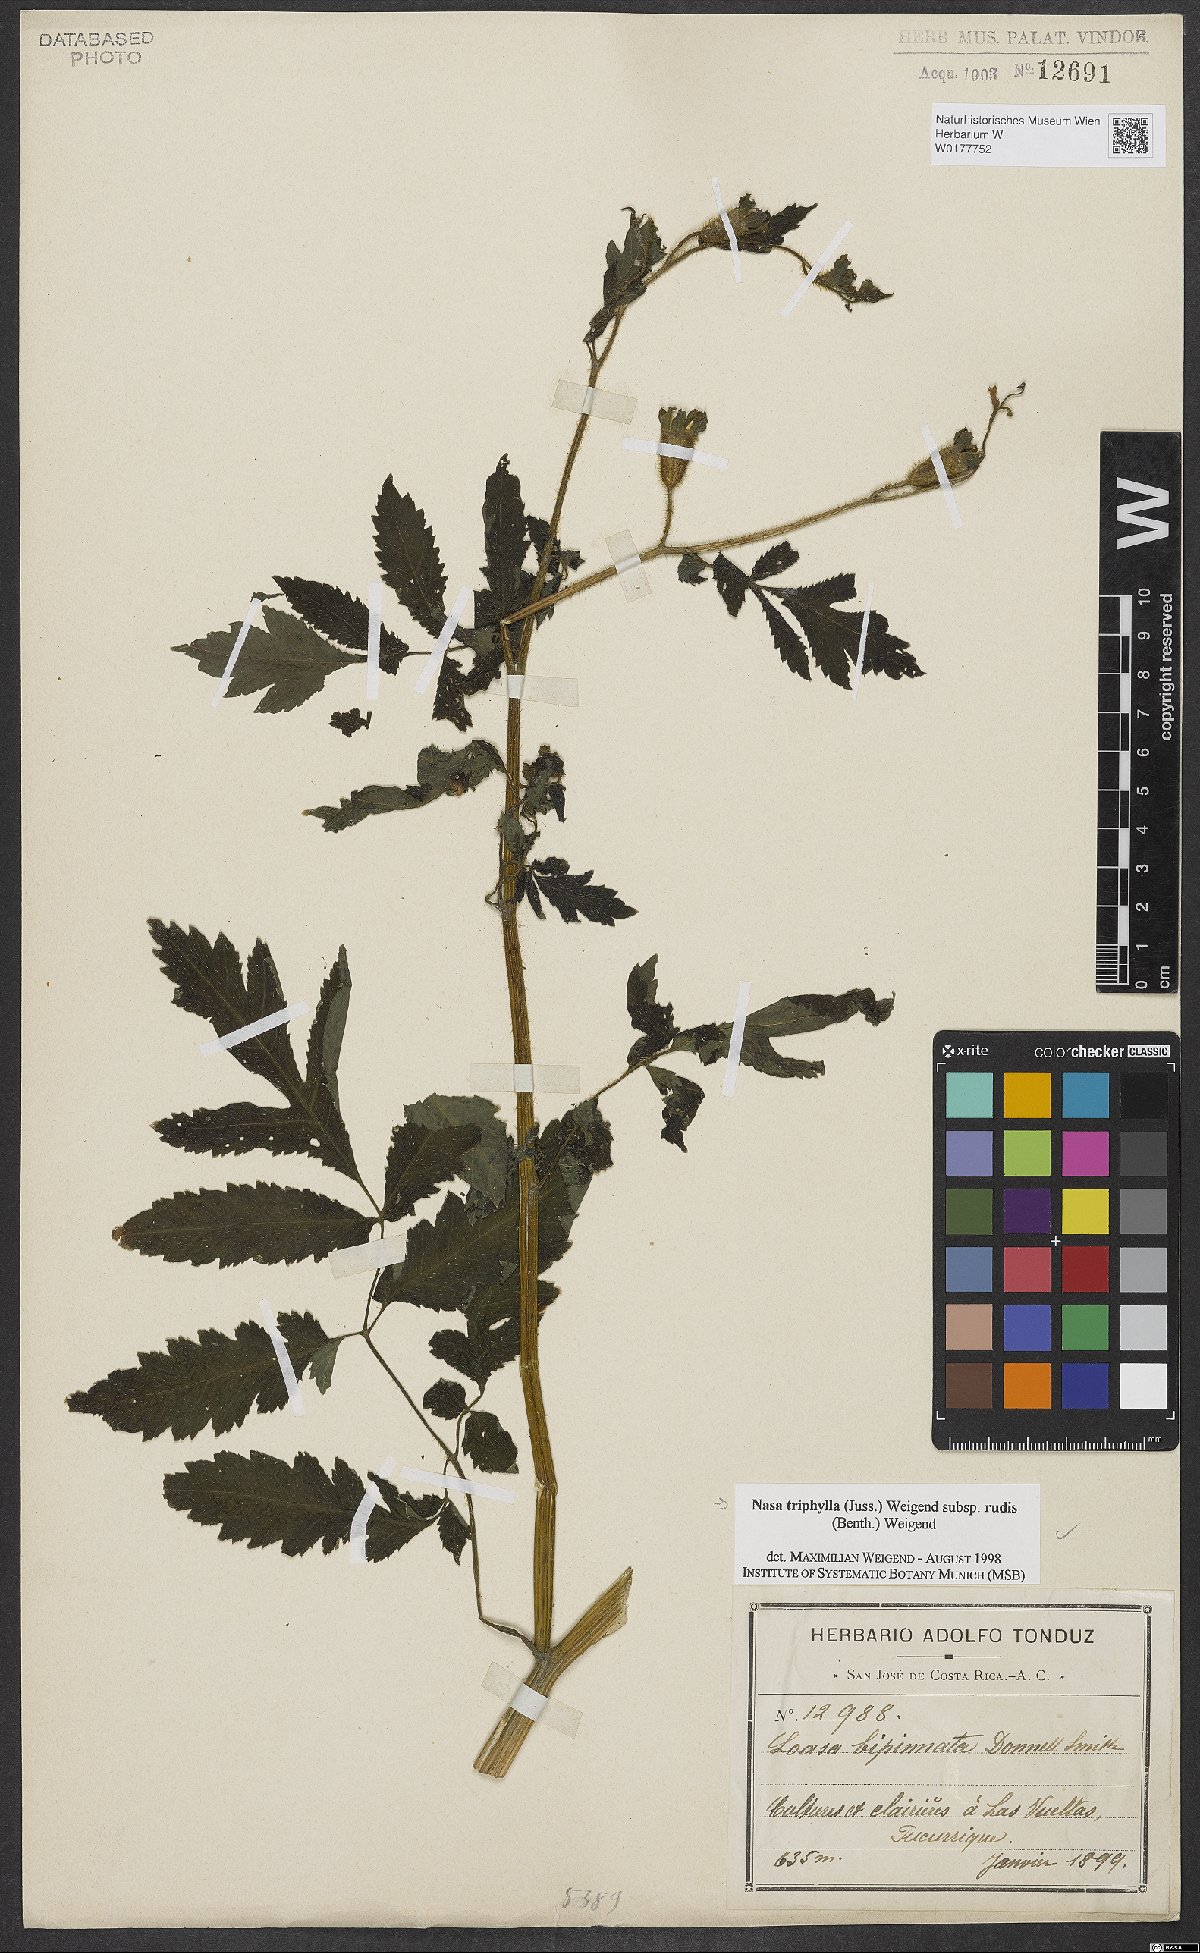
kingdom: Plantae
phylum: Tracheophyta
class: Magnoliopsida
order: Cornales
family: Loasaceae
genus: Nasa
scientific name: Nasa triphylla
